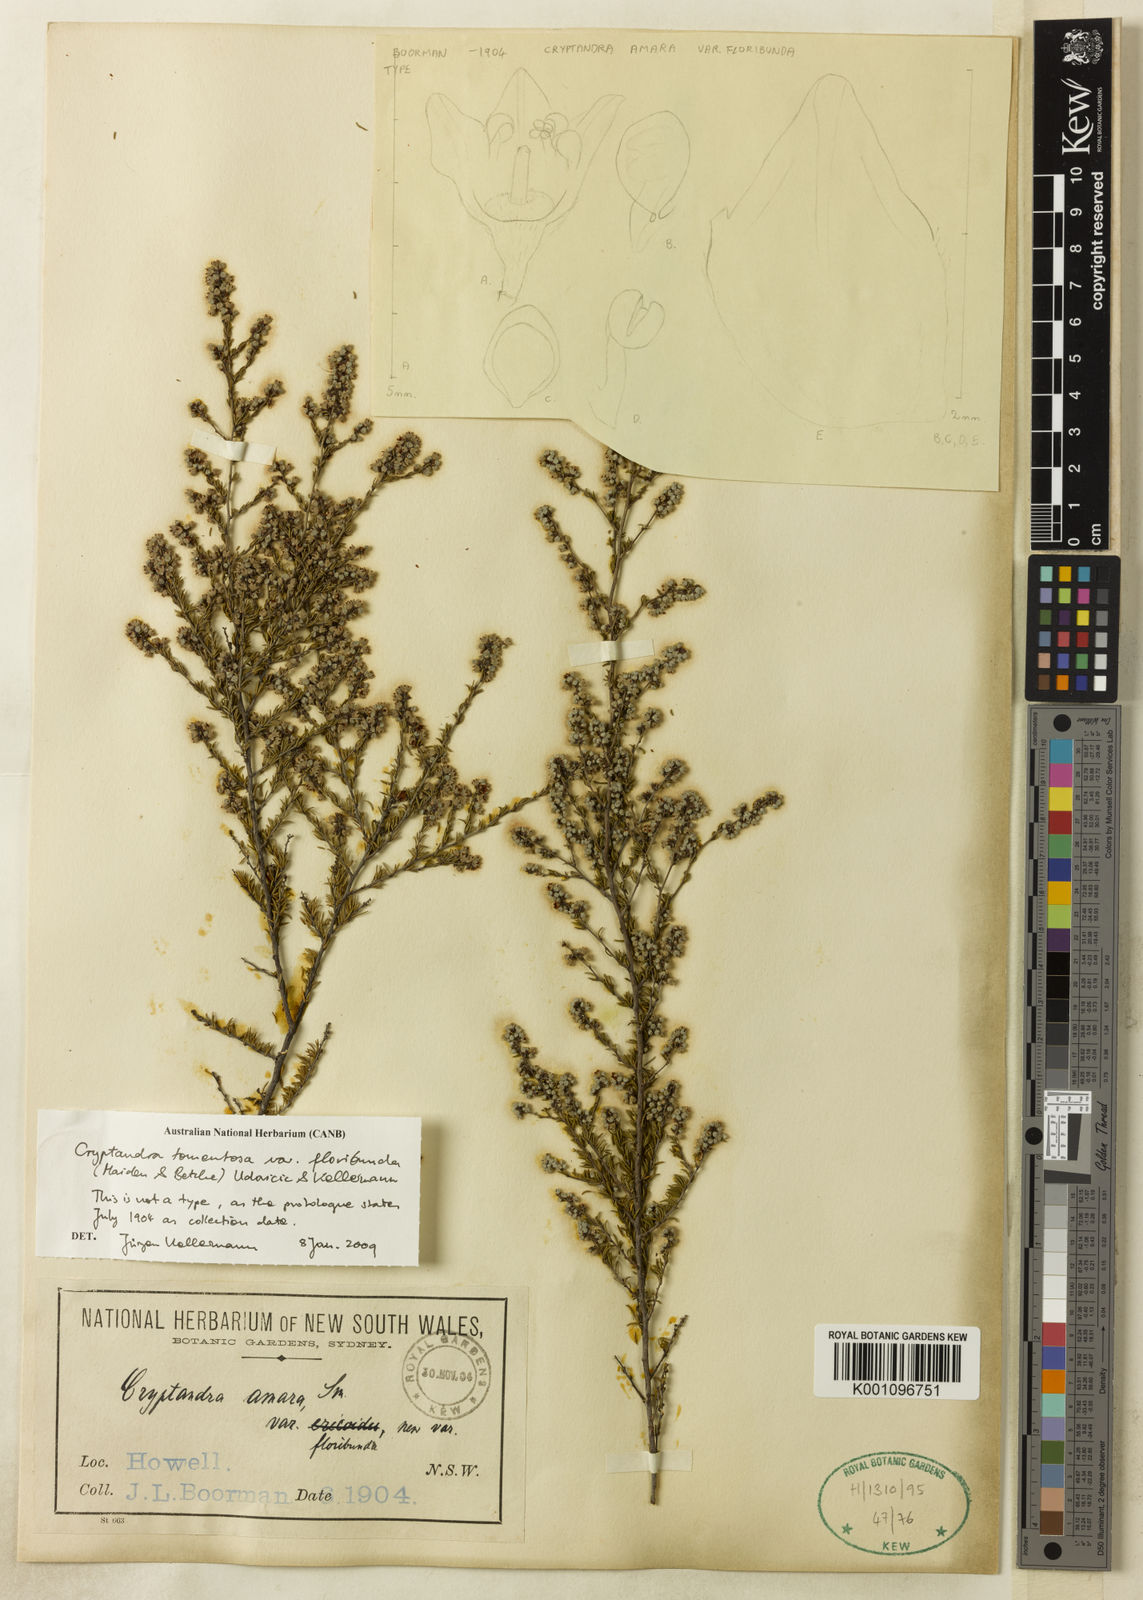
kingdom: Plantae
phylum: Tracheophyta
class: Magnoliopsida
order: Rosales
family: Rhamnaceae
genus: Cryptandra
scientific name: Cryptandra amara
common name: Bitter cryptandra
